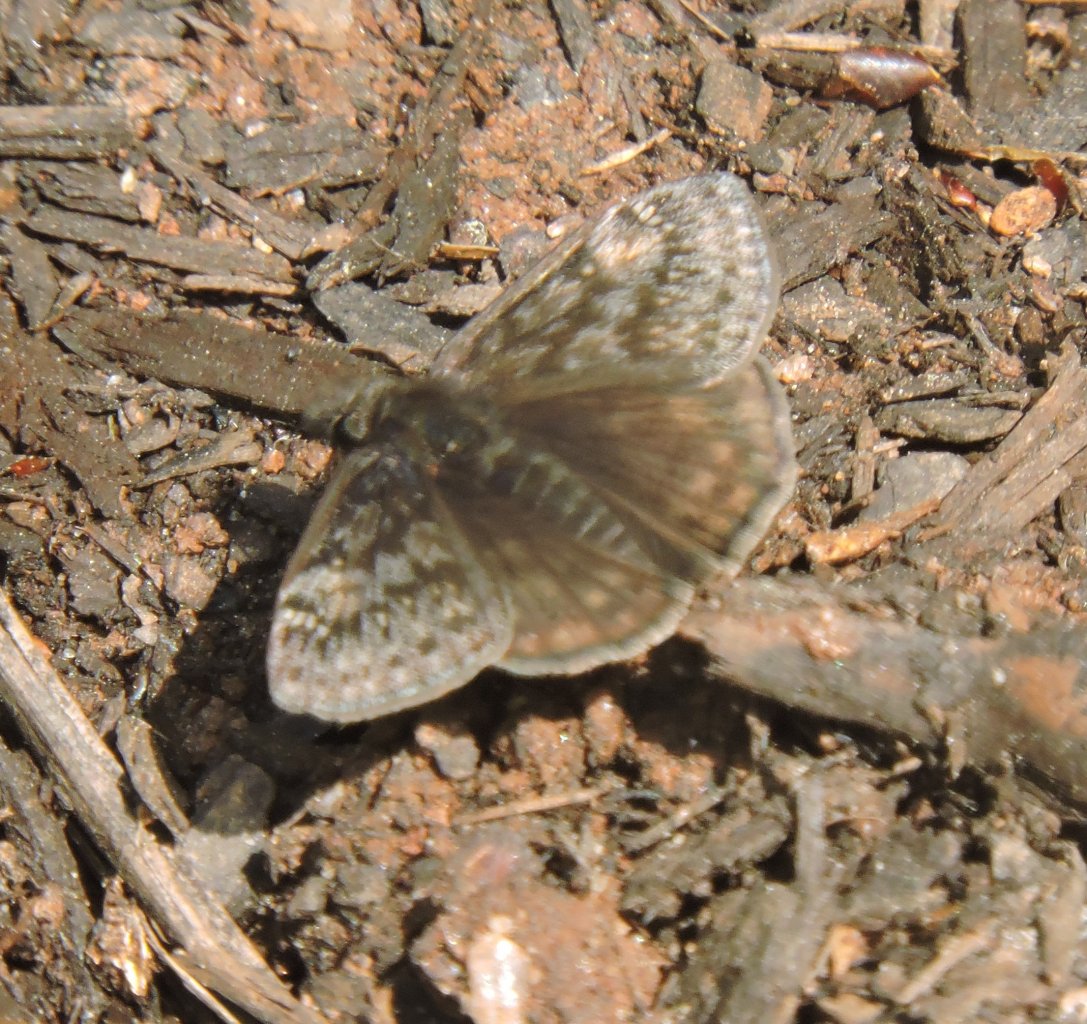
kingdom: Animalia
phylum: Arthropoda
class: Insecta
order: Lepidoptera
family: Hesperiidae
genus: Gesta
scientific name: Gesta
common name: Juvenal's Duskywing
